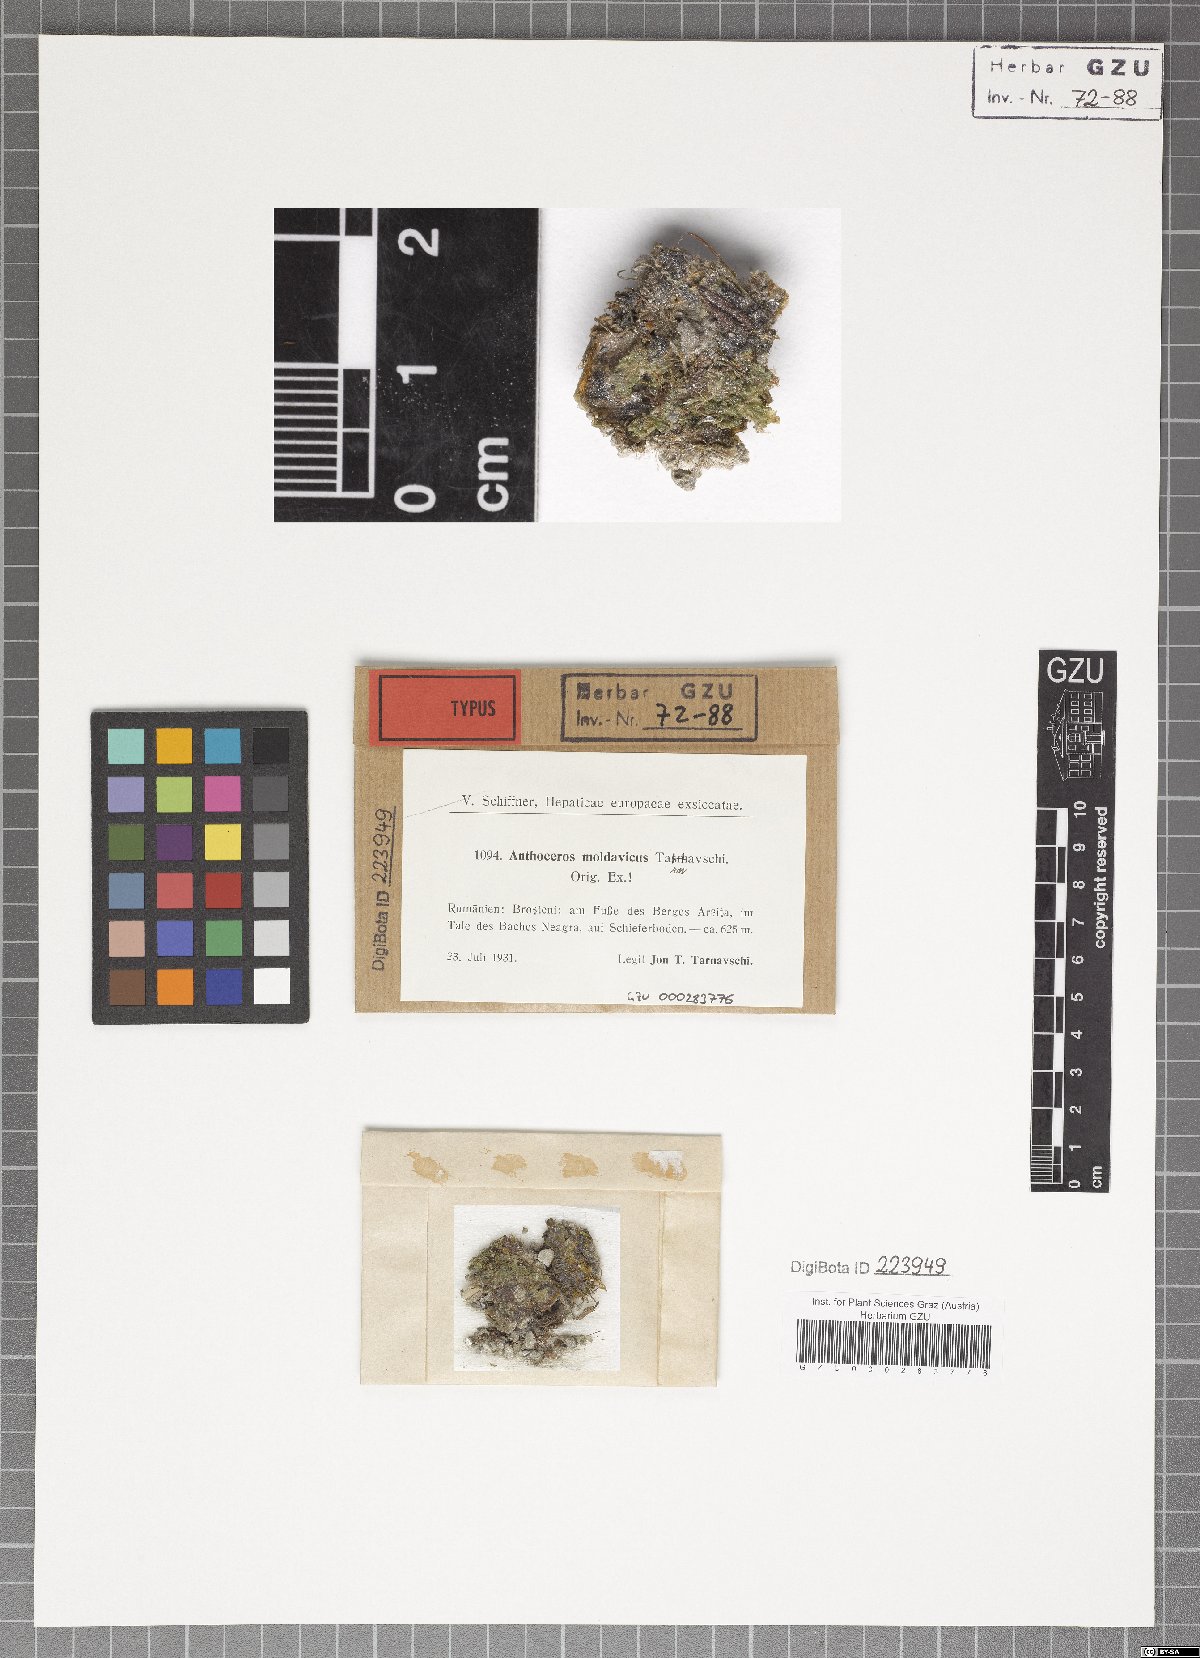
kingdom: Plantae
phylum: Anthocerotophyta
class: Anthocerotopsida
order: Notothyladales
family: Notothyladaceae
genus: Phaeoceros
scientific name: Phaeoceros carolinianus
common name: Carolina hornwort
